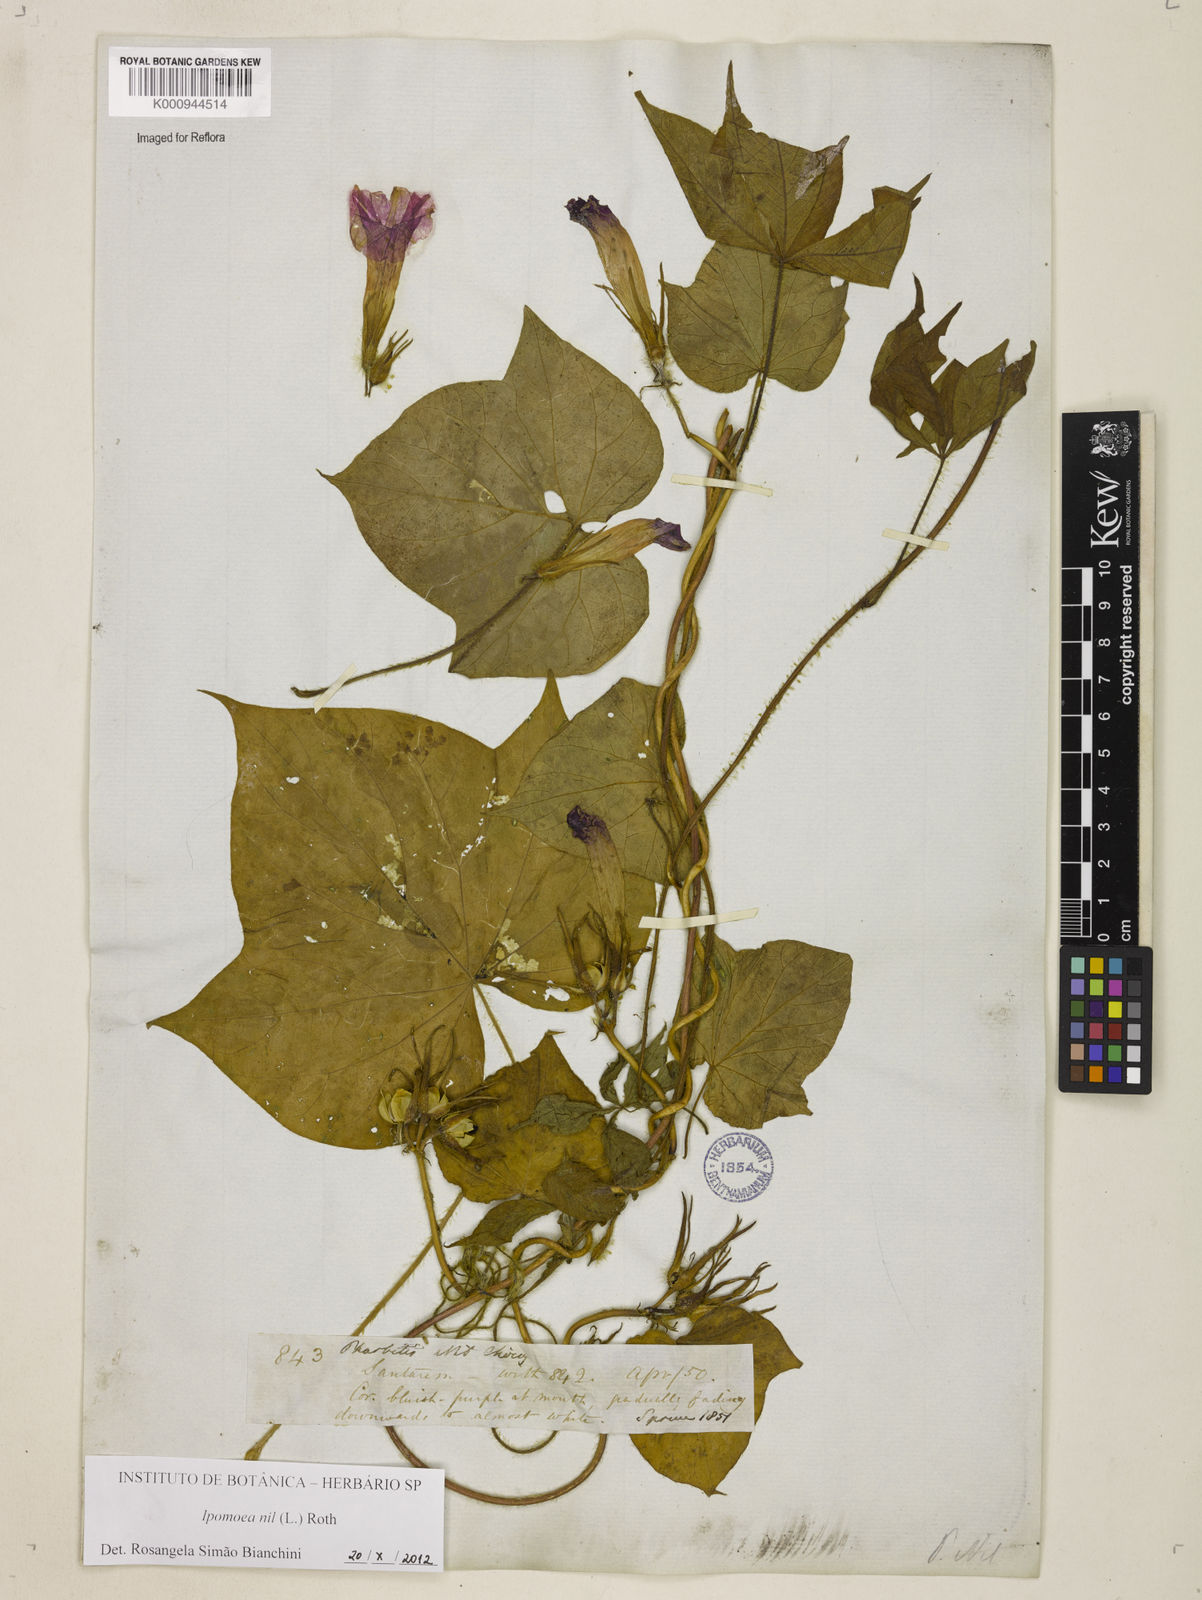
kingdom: Plantae
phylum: Tracheophyta
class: Magnoliopsida
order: Solanales
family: Convolvulaceae
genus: Ipomoea
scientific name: Ipomoea nil
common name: Japanese morning-glory
